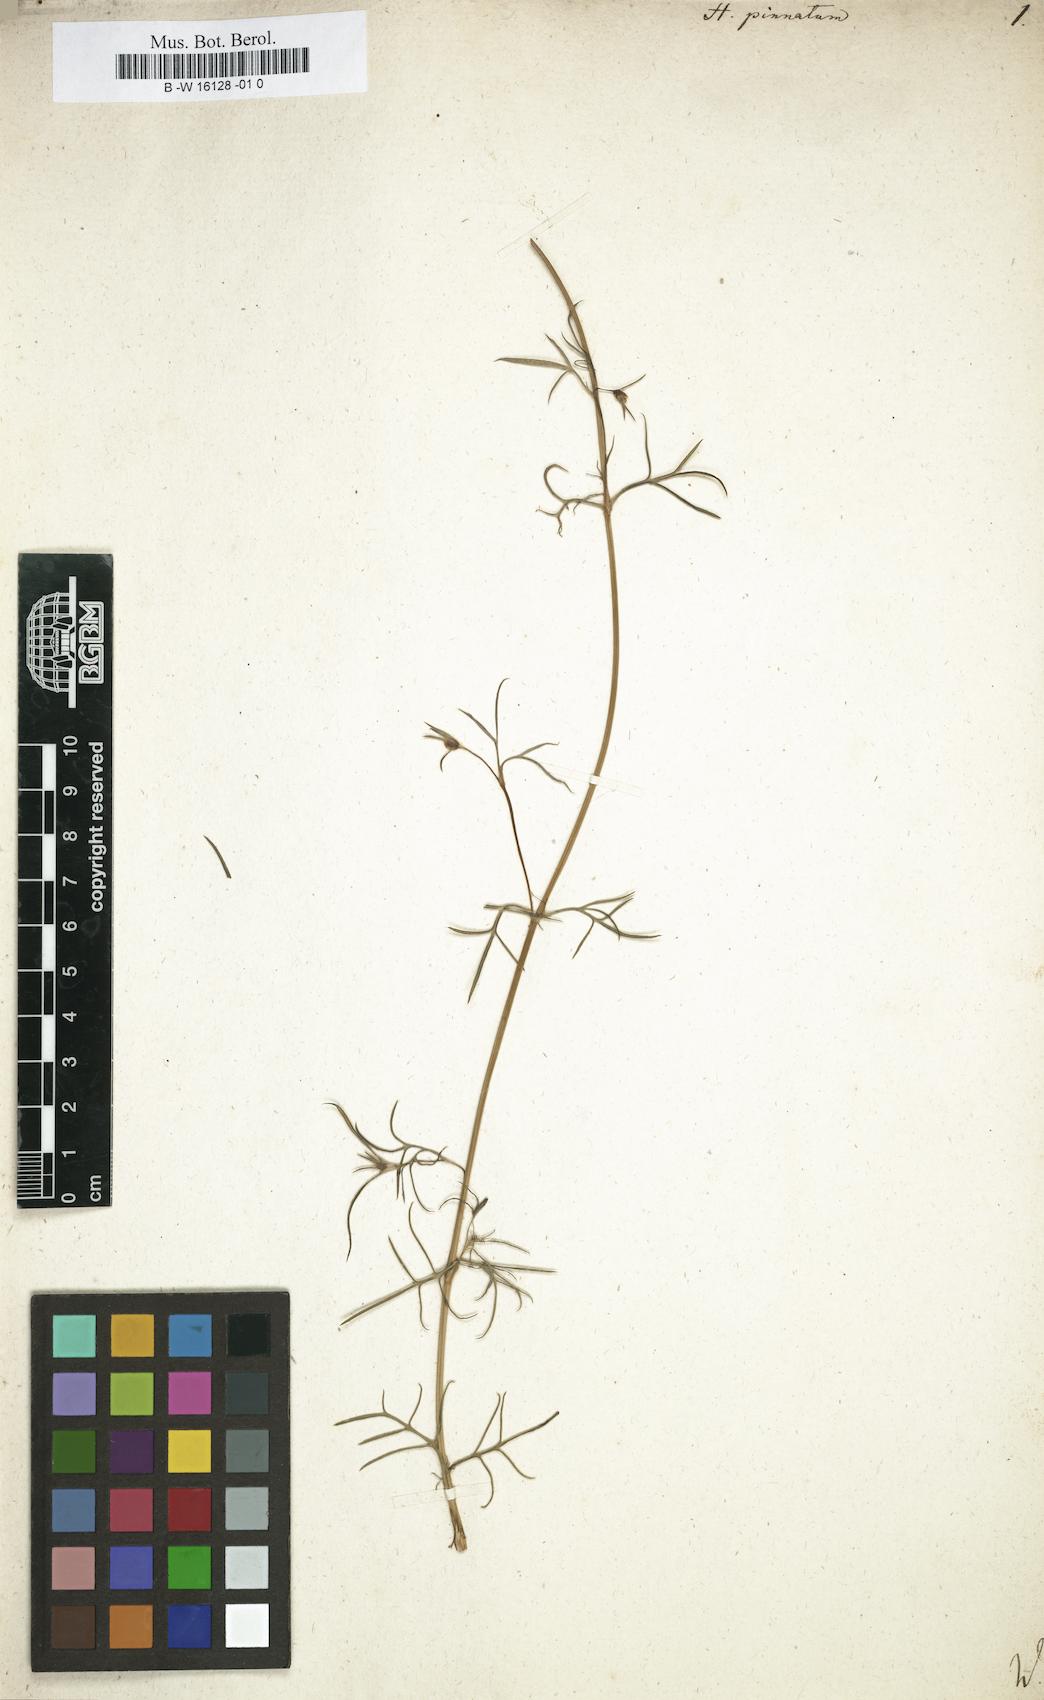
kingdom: Plantae
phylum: Tracheophyta
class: Magnoliopsida
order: Asterales
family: Asteraceae
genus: Heterosperma
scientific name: Heterosperma
